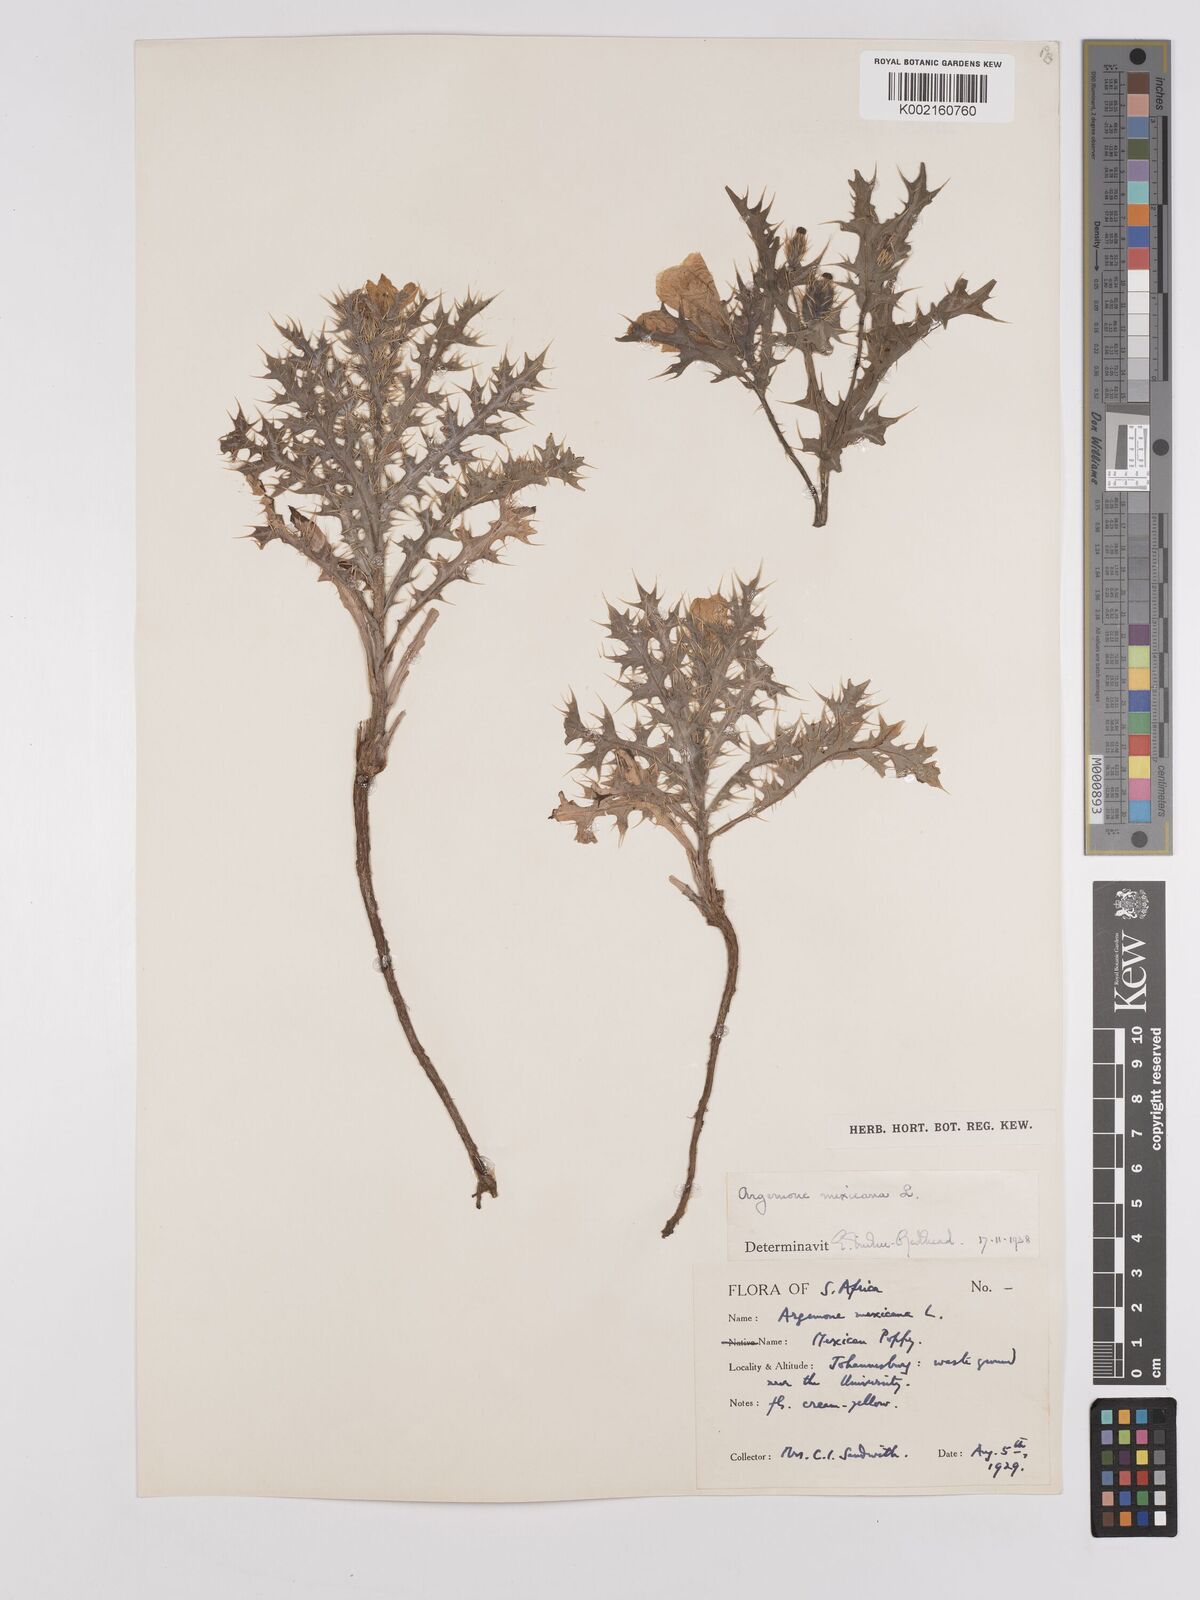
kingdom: Plantae
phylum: Tracheophyta
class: Magnoliopsida
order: Ranunculales
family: Papaveraceae
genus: Argemone
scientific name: Argemone mexicana
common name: Mexican poppy
